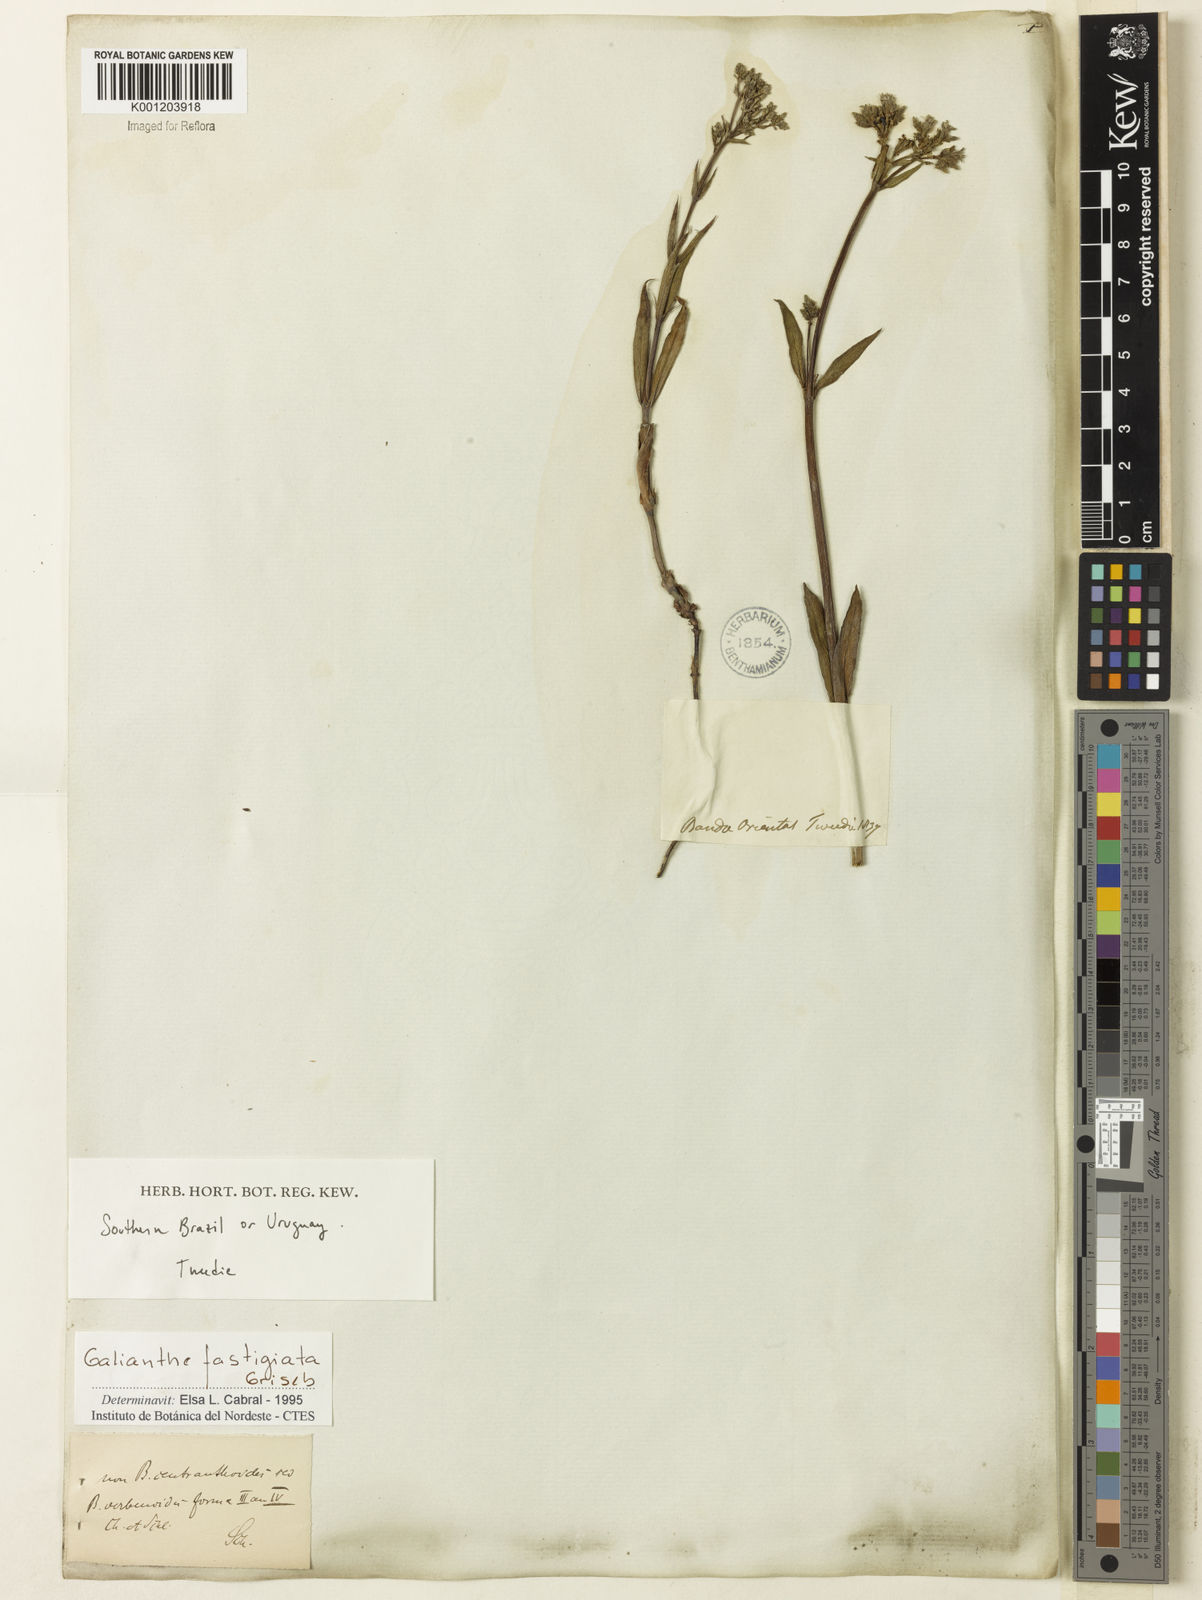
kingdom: Plantae
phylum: Tracheophyta
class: Magnoliopsida
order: Gentianales
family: Rubiaceae
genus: Galianthe
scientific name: Galianthe fastigiata
